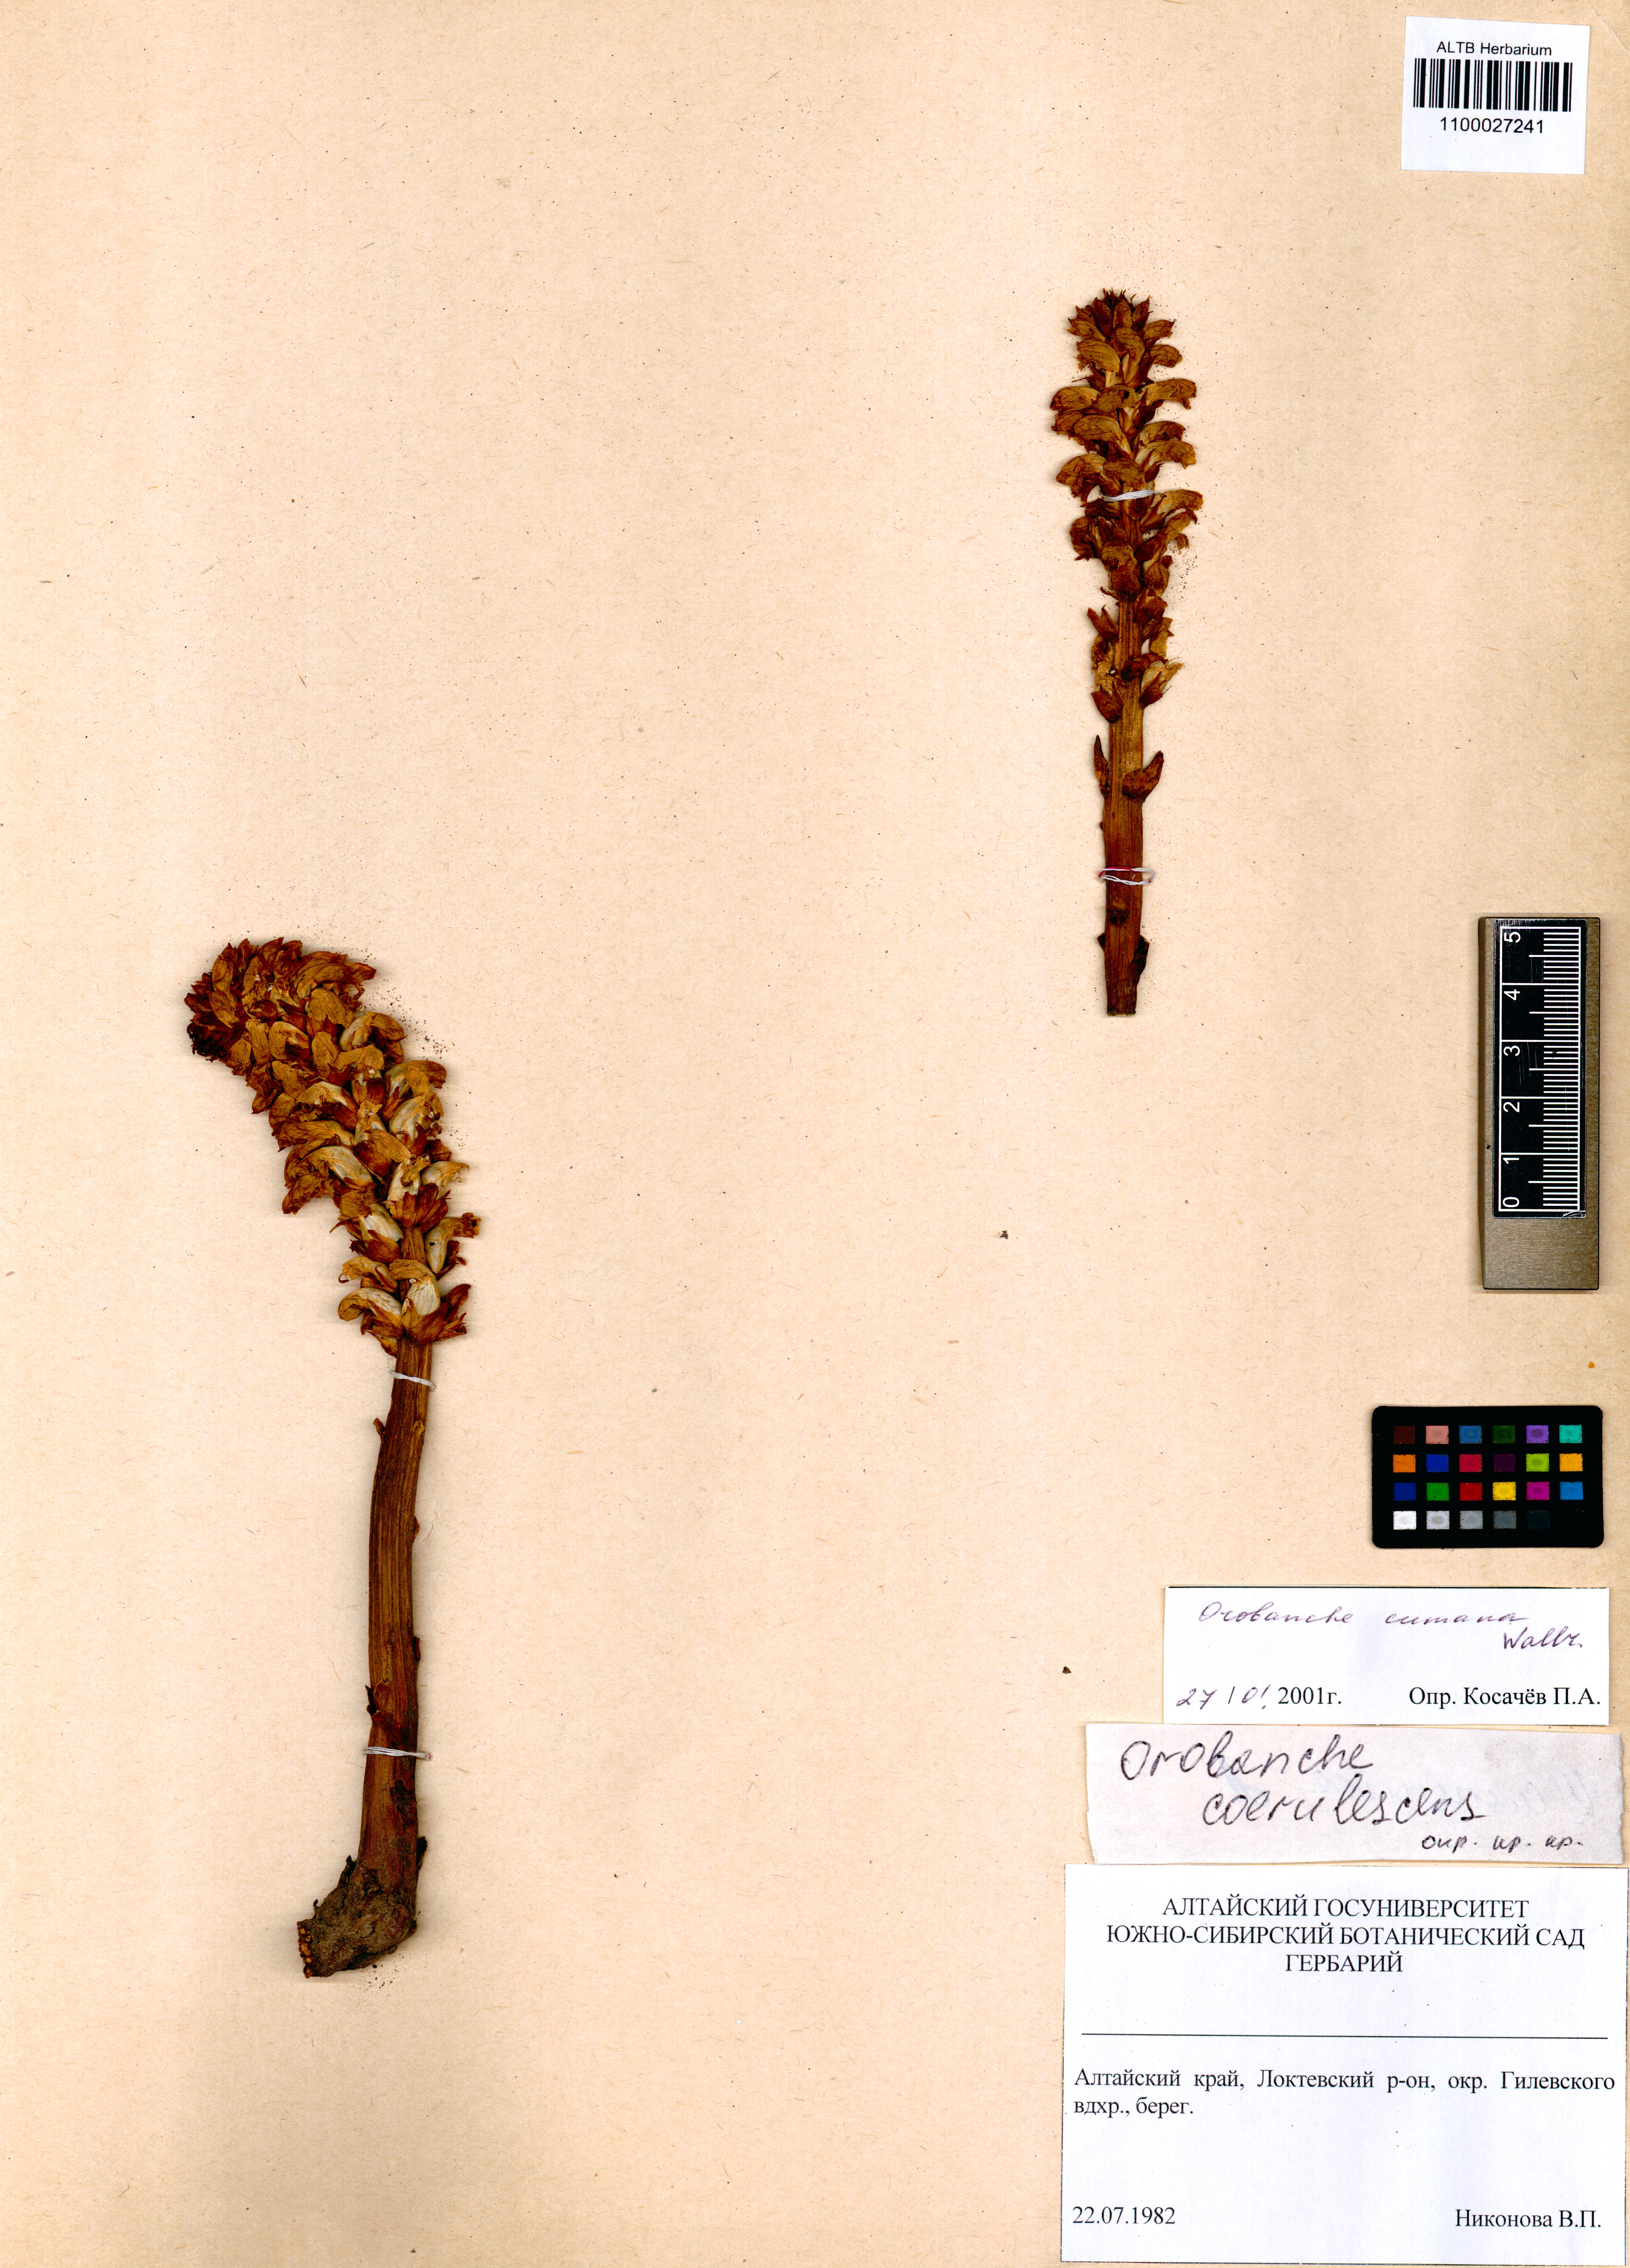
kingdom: Plantae
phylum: Tracheophyta
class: Magnoliopsida
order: Lamiales
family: Orobanchaceae
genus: Orobanche
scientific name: Orobanche cumana
